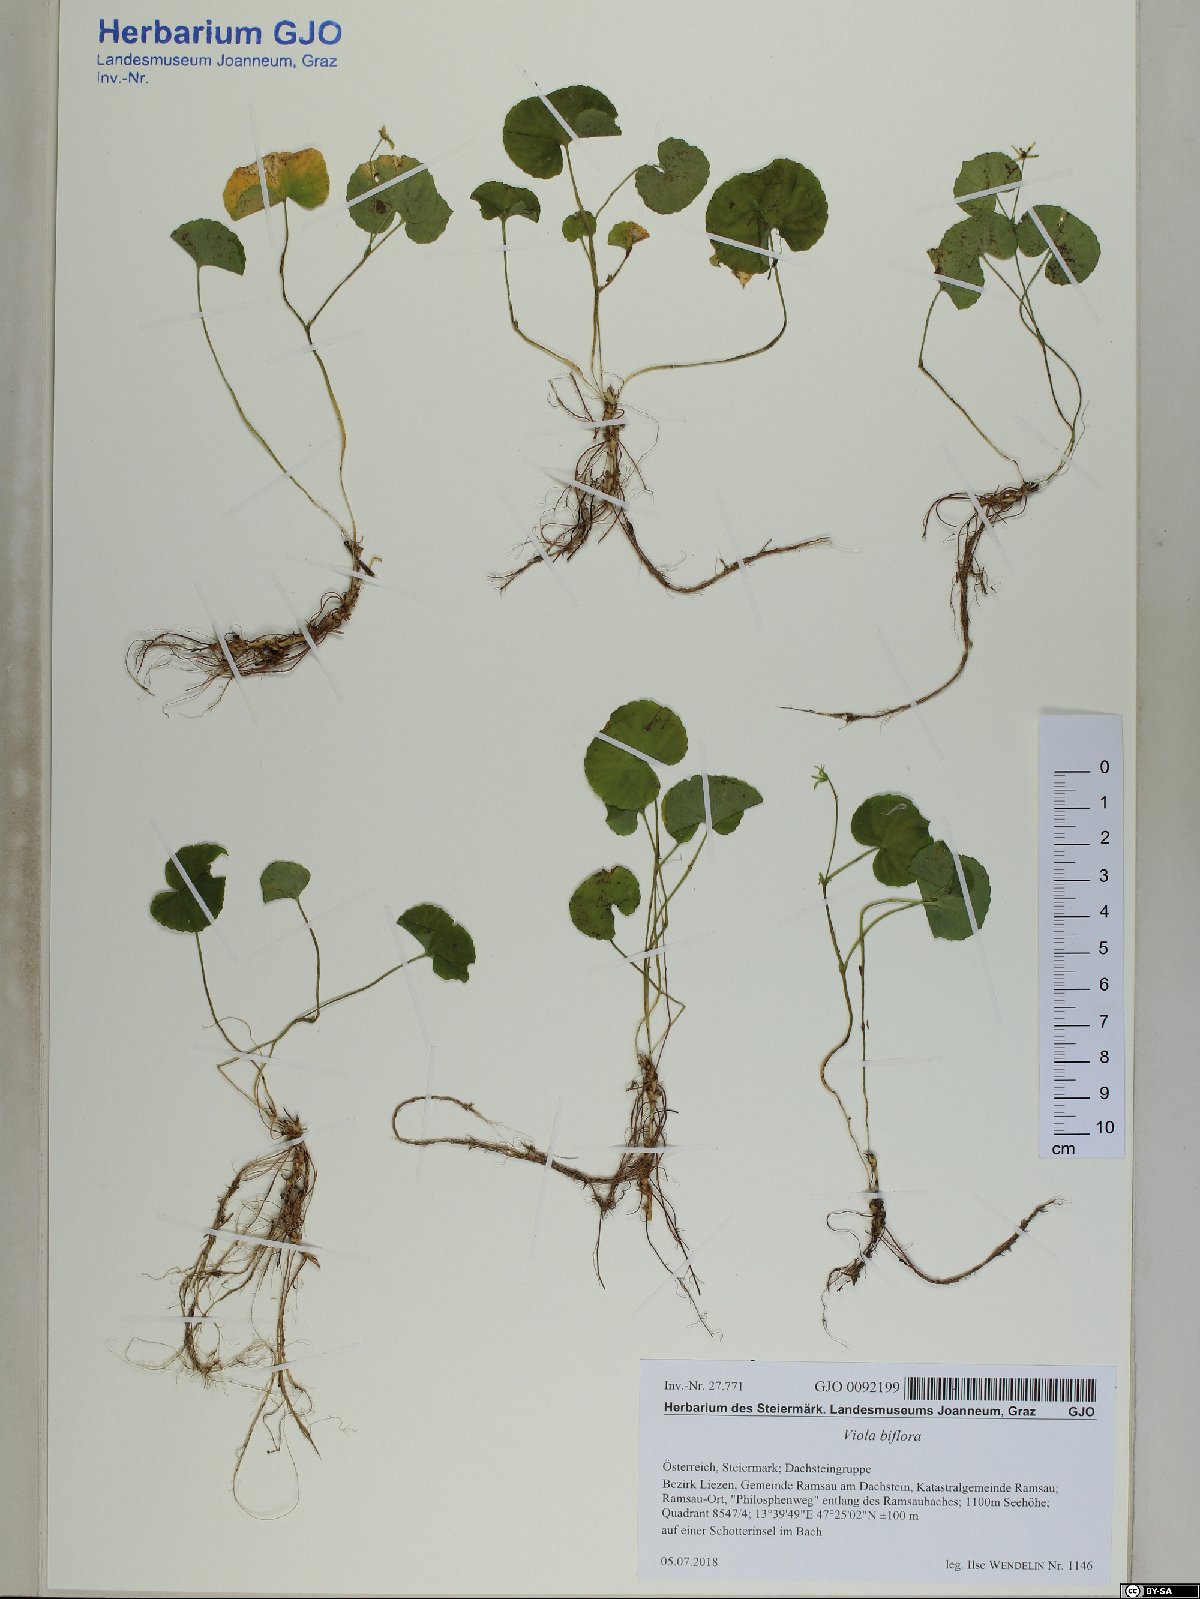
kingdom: Plantae
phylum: Tracheophyta
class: Magnoliopsida
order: Malpighiales
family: Violaceae
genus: Viola
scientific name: Viola biflora
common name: Alpine yellow violet
